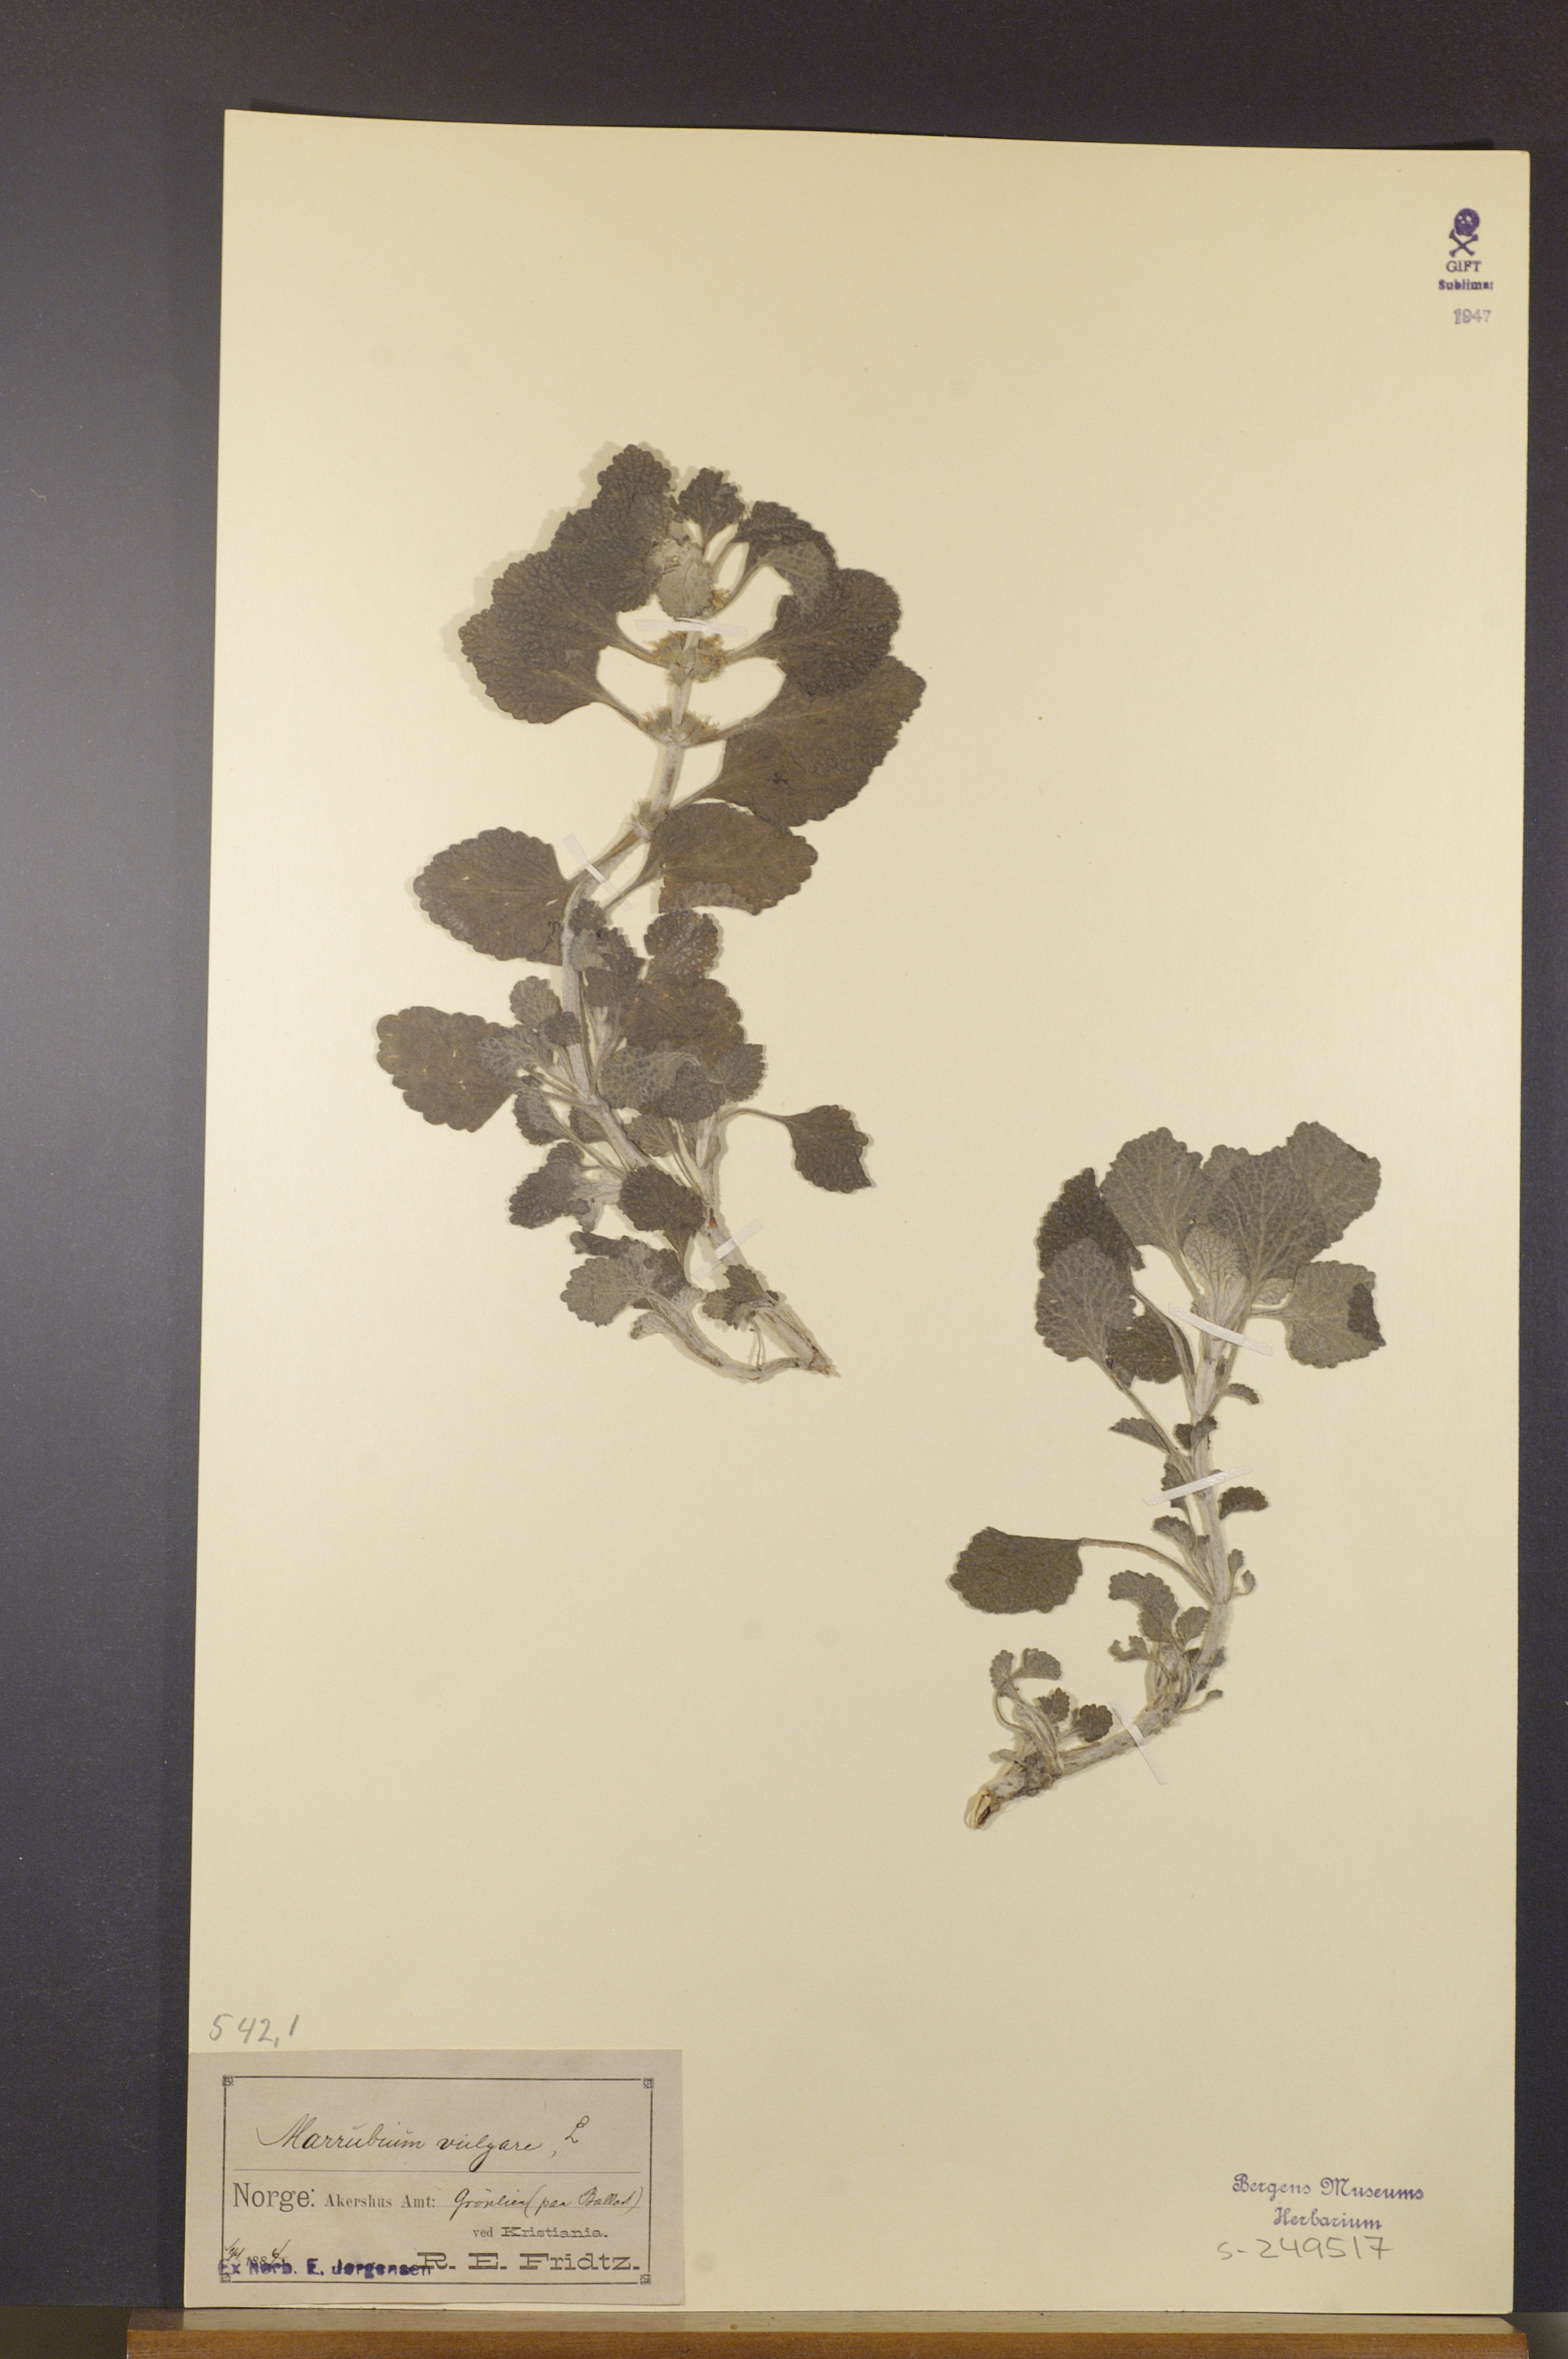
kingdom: Plantae
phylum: Tracheophyta
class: Magnoliopsida
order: Lamiales
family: Lamiaceae
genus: Marrubium
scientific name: Marrubium vulgare
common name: Horehound
